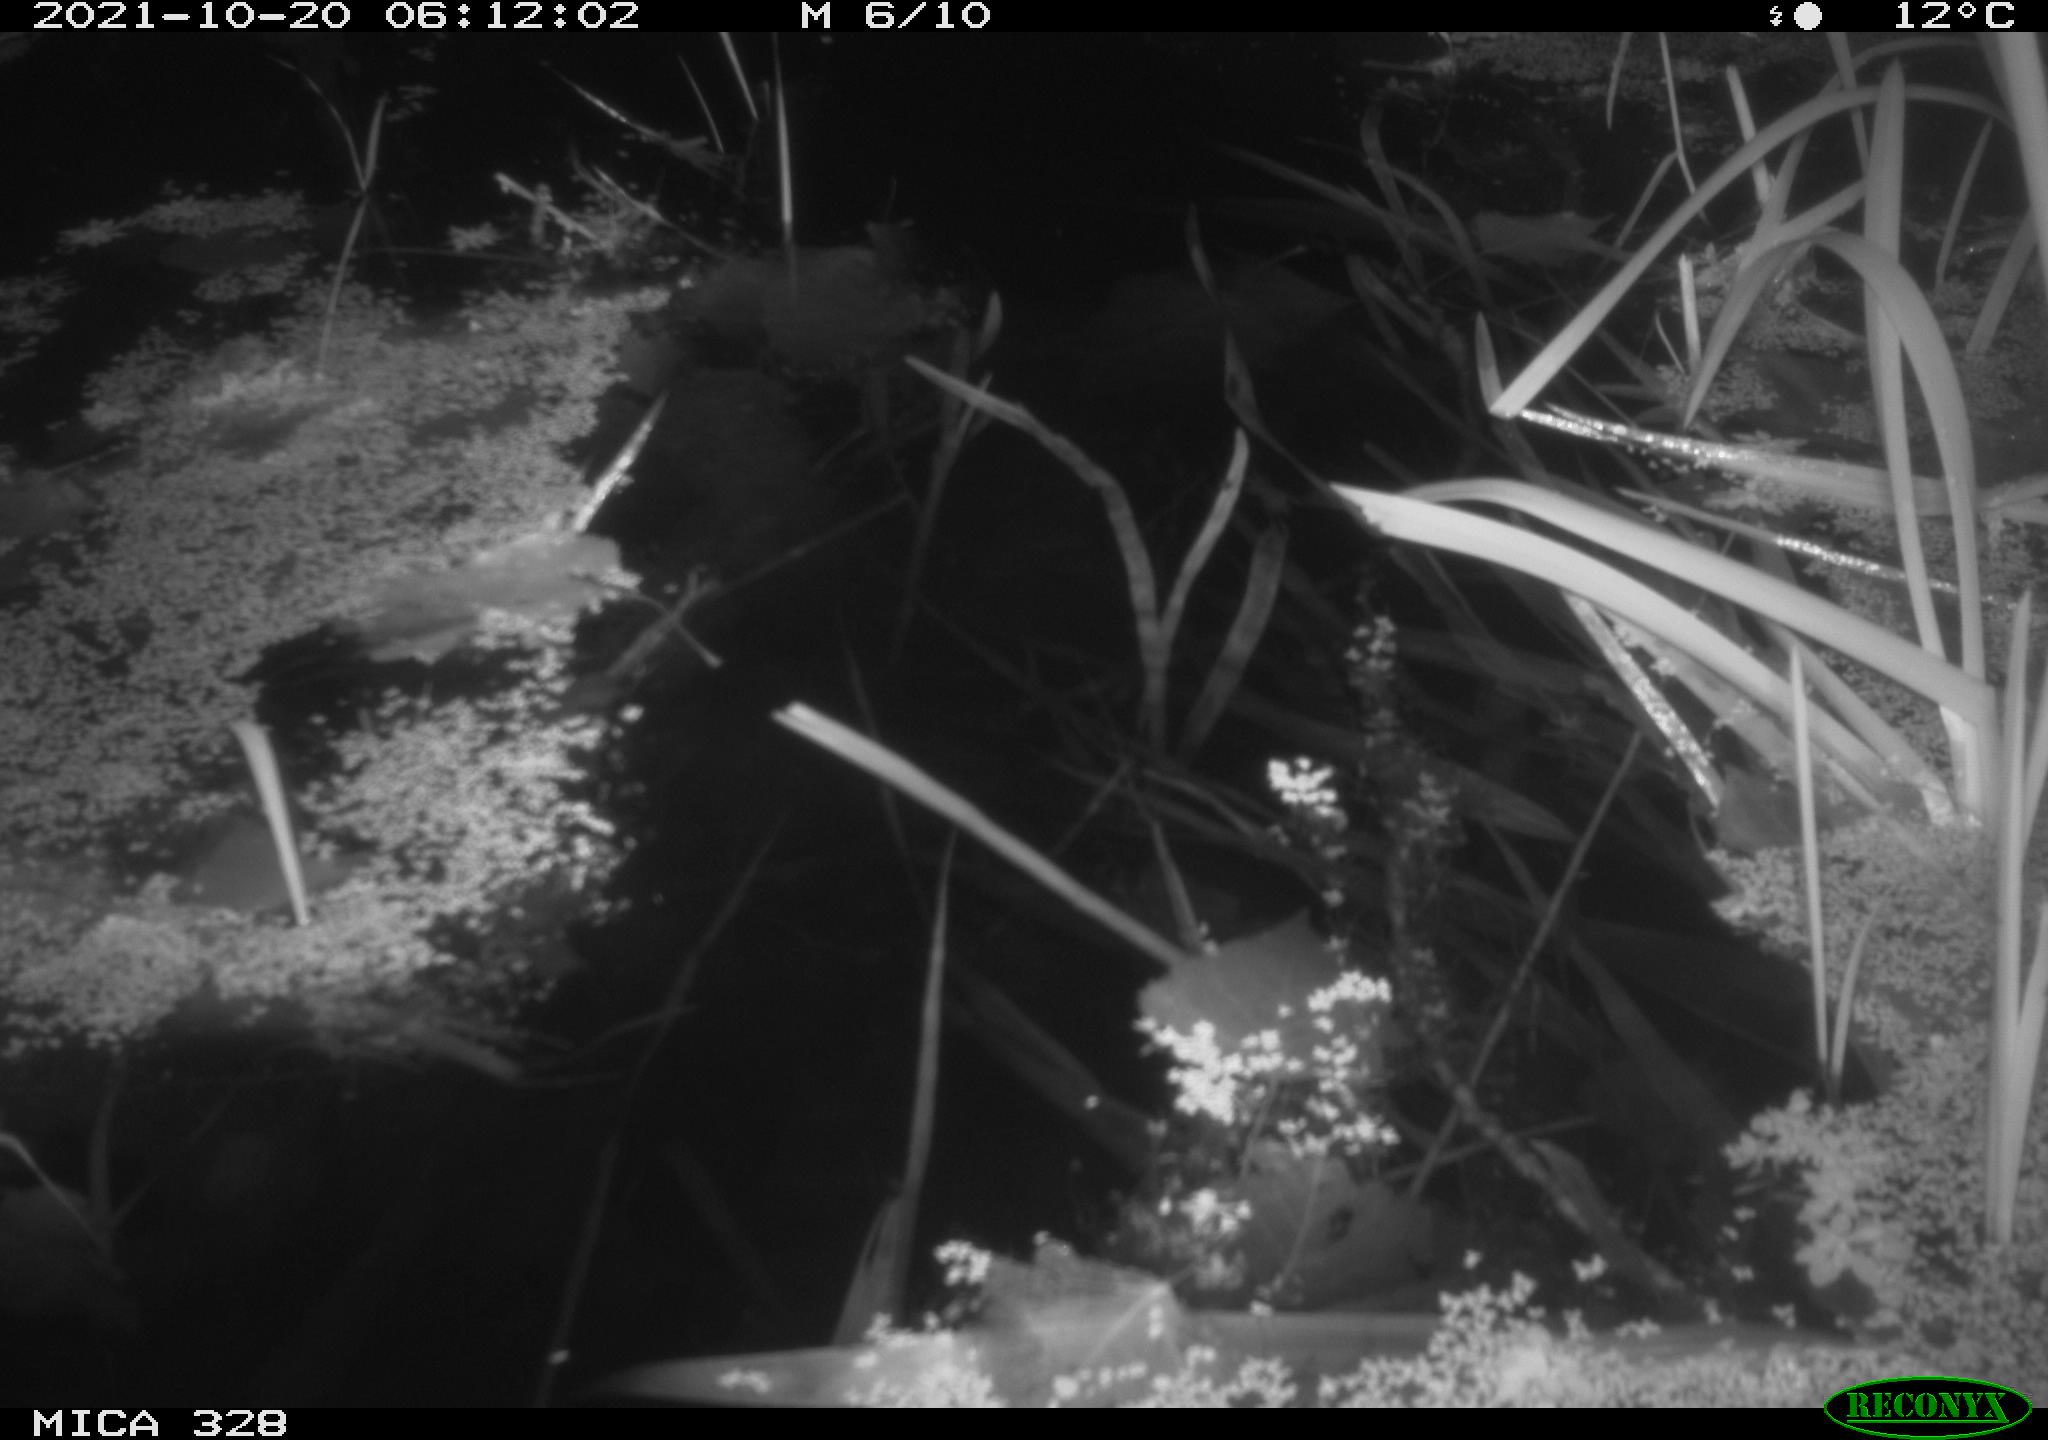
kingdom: Animalia
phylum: Chordata
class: Mammalia
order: Rodentia
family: Muridae
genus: Rattus
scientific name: Rattus norvegicus
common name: Brown rat
